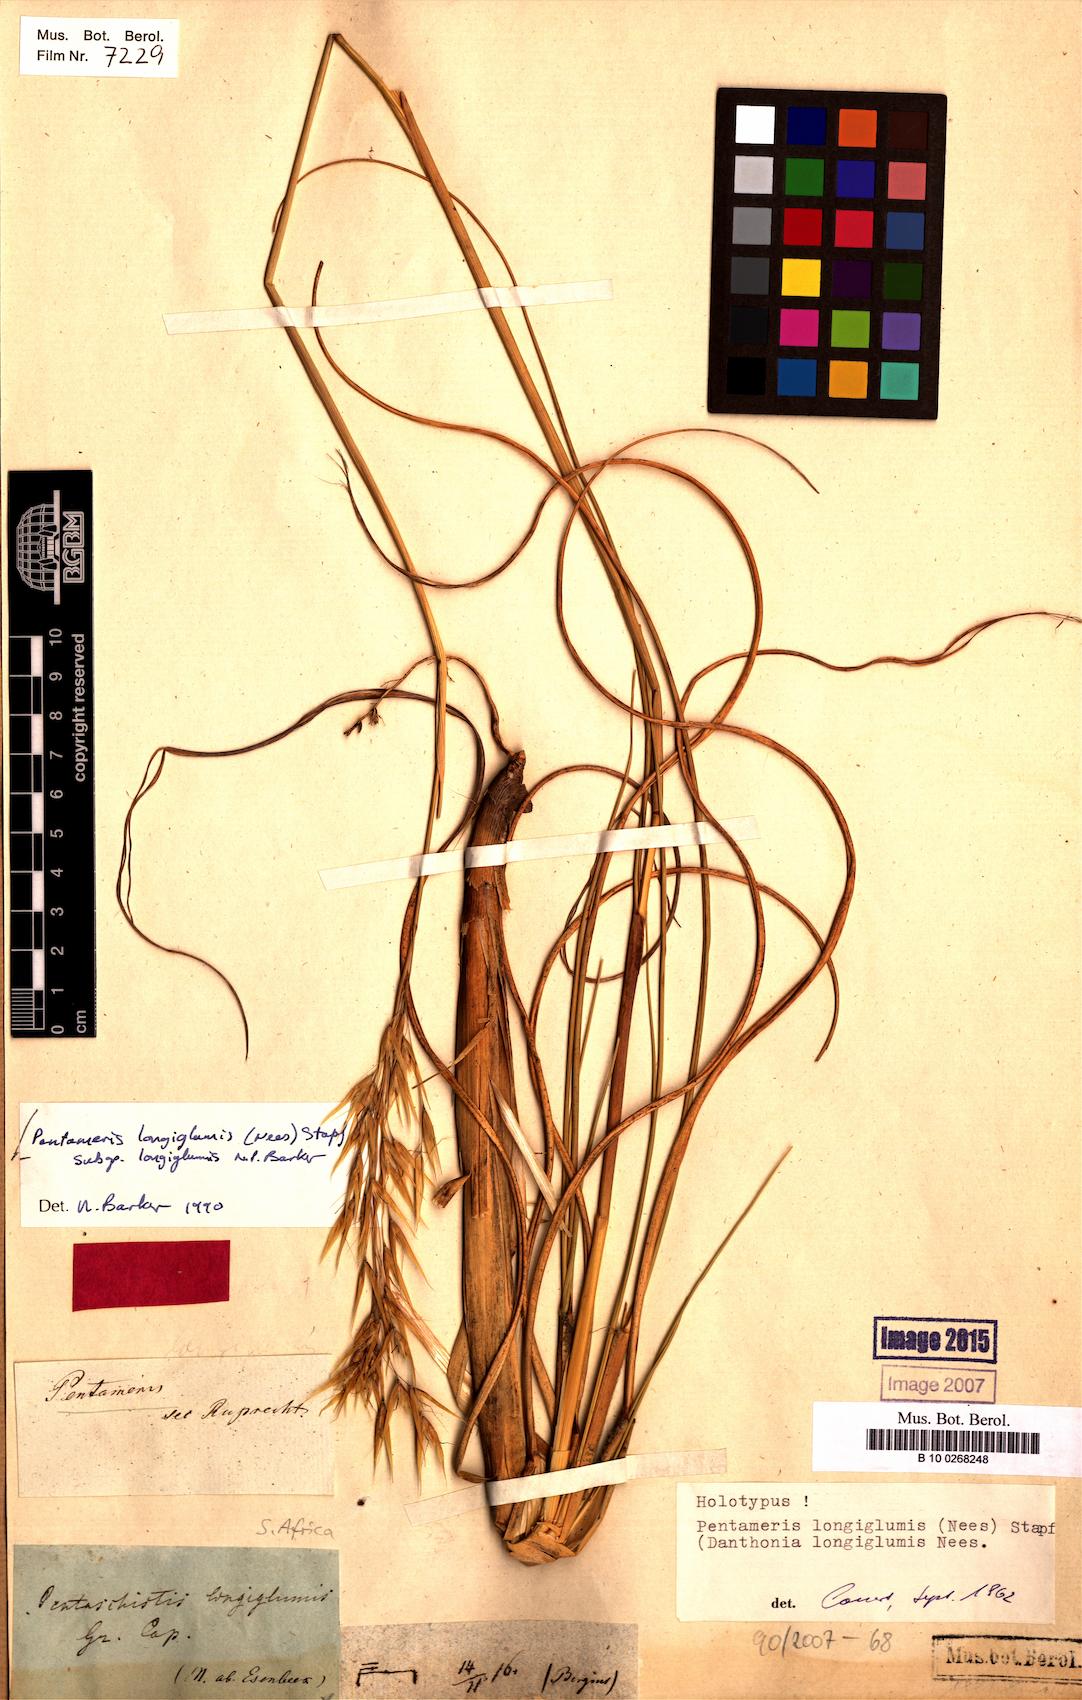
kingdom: Plantae
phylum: Tracheophyta
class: Liliopsida
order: Poales
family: Poaceae
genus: Pentameris
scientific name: Pentameris longiglumis
